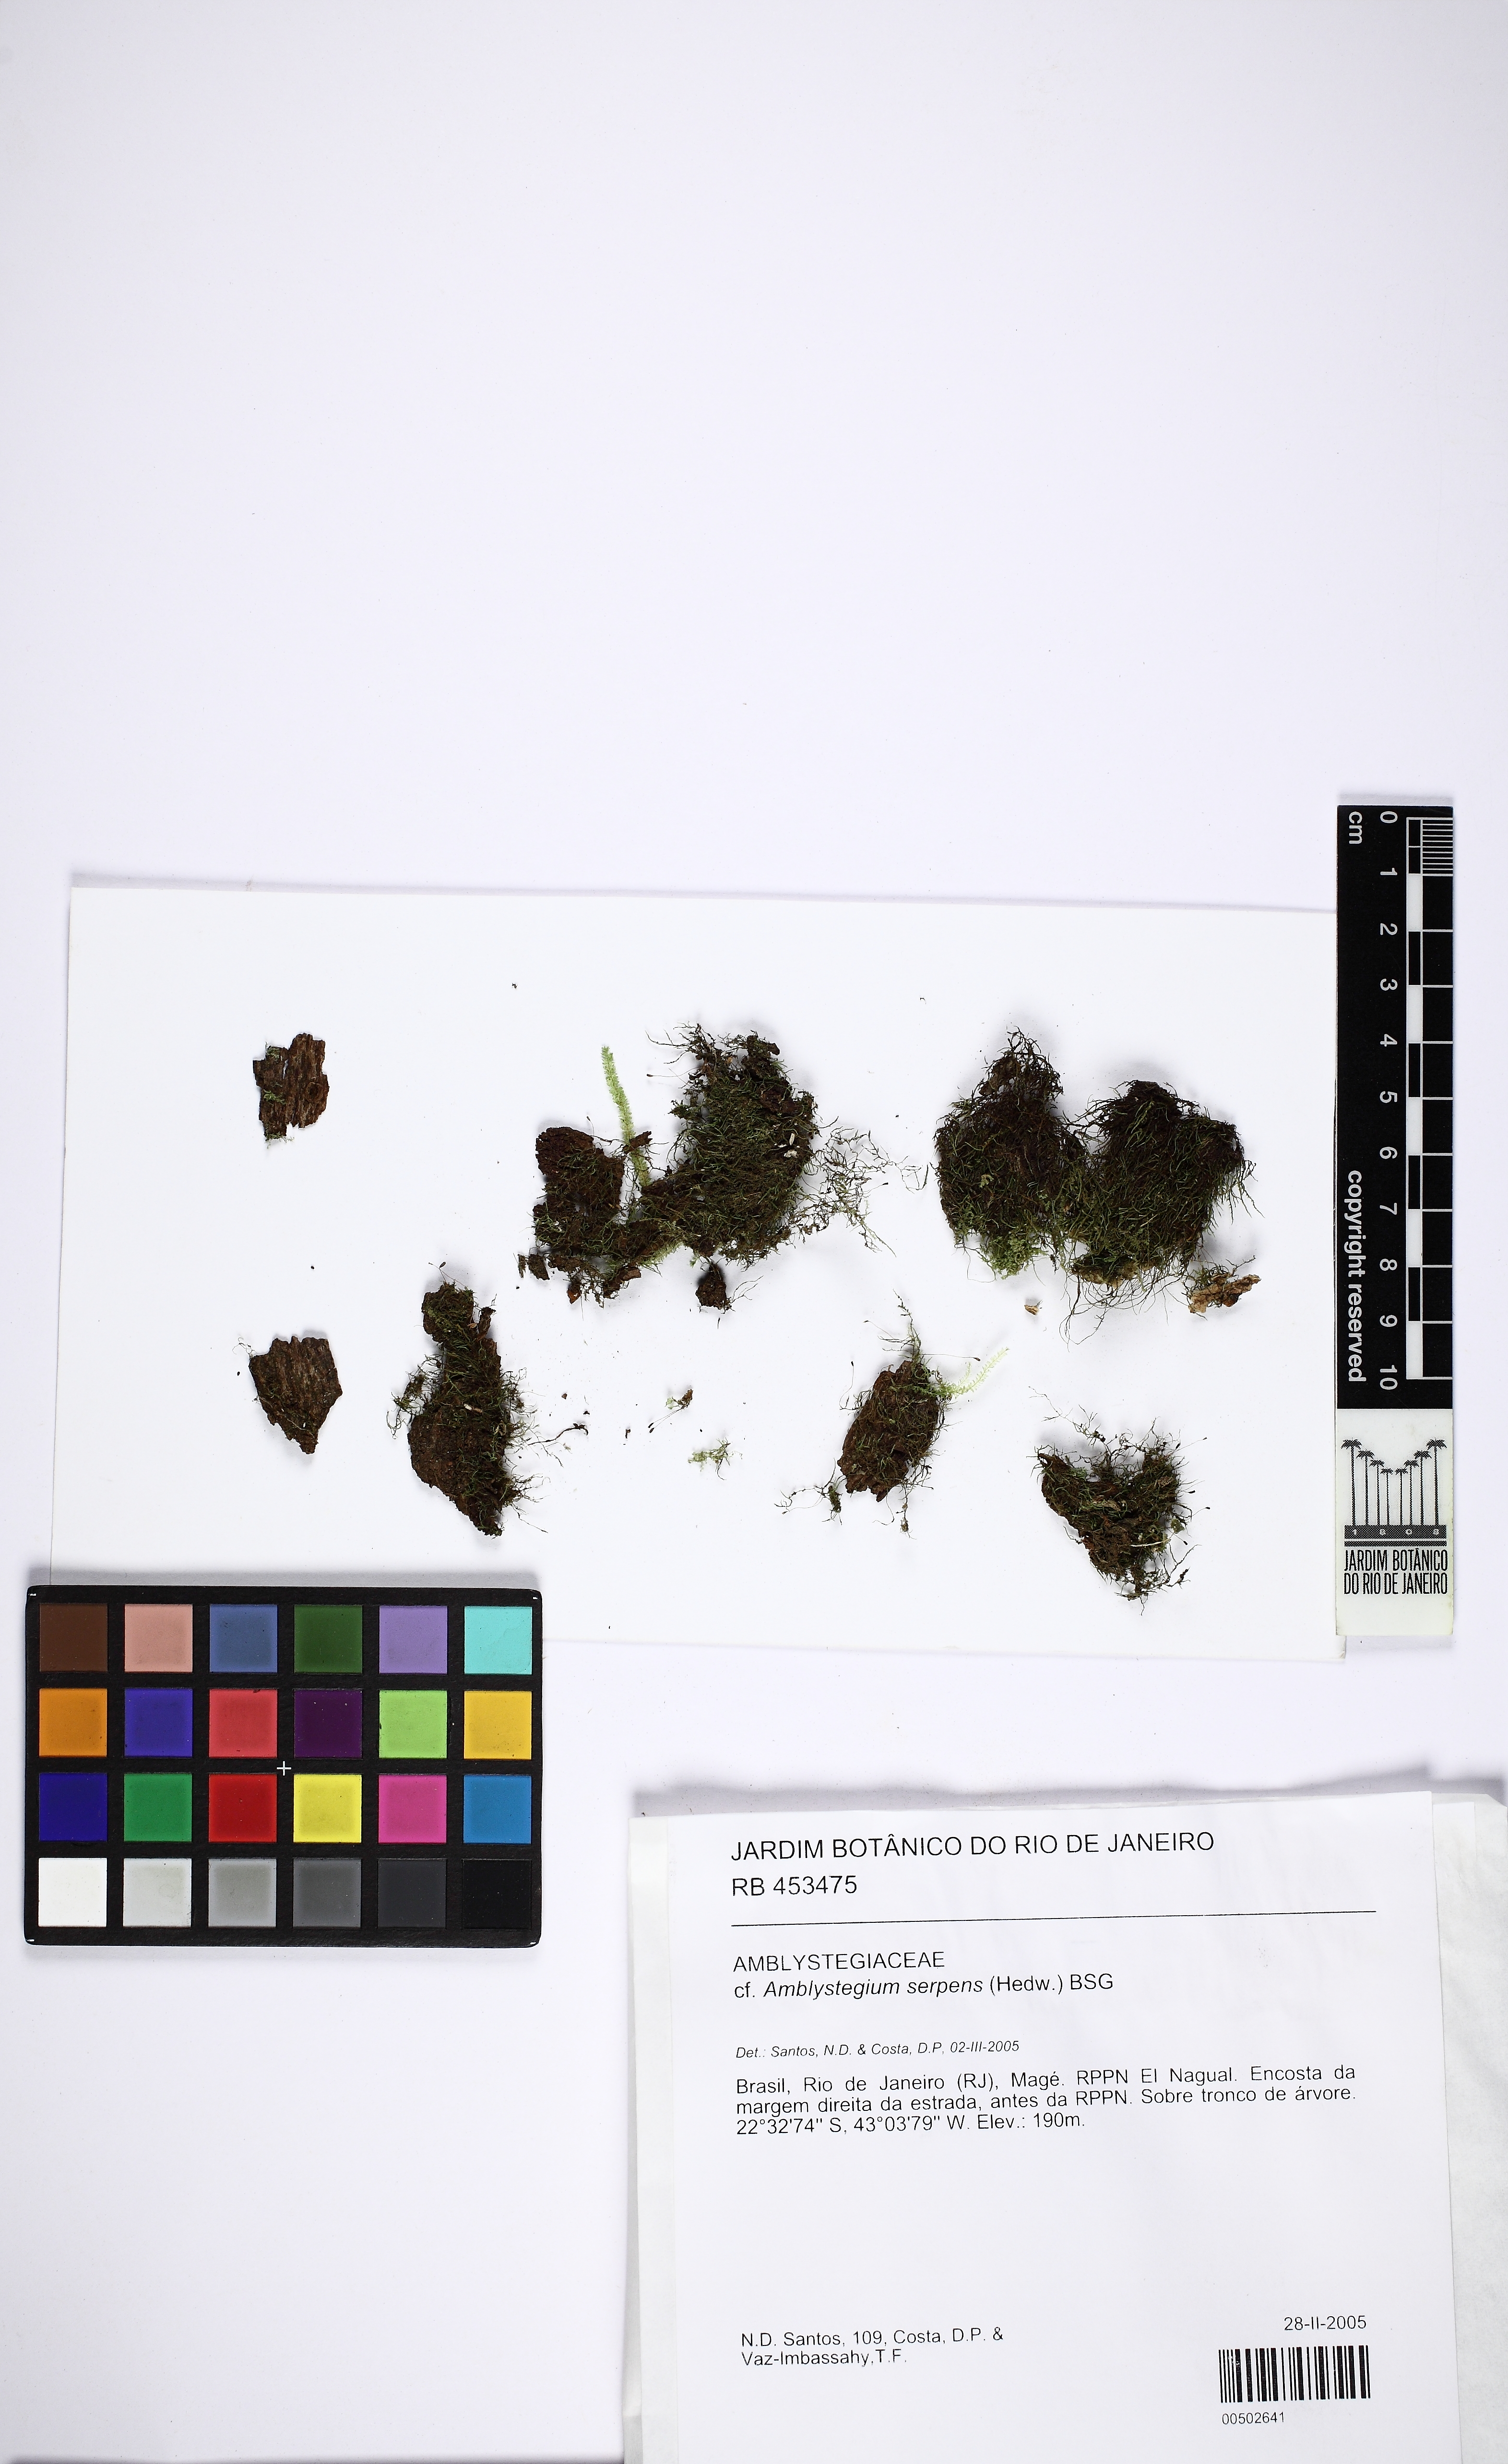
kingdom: Plantae
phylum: Bryophyta
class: Bryopsida
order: Hypnales
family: Amblystegiaceae
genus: Amblystegium
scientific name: Amblystegium serpens
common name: Jurkatzka's feather moss
